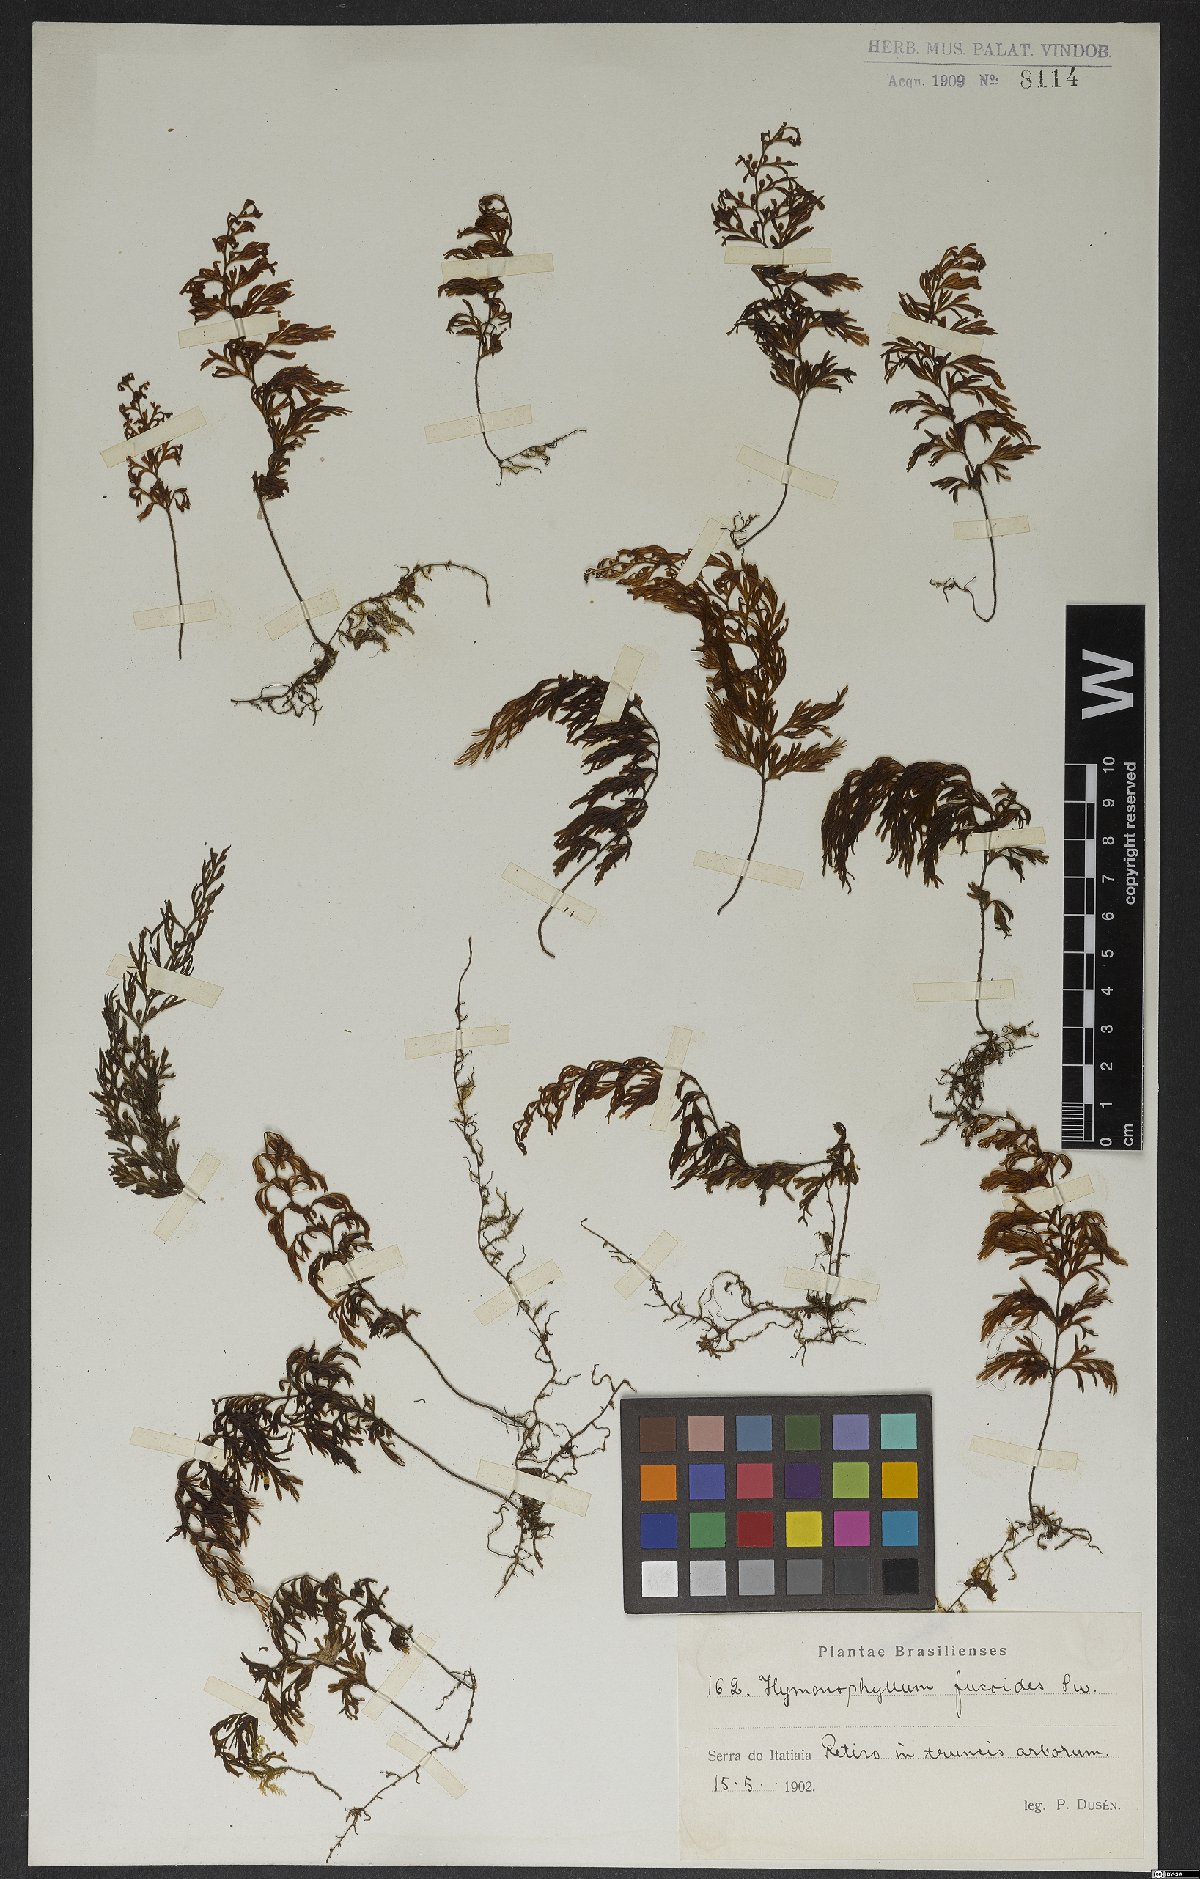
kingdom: Plantae
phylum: Tracheophyta
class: Polypodiopsida
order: Hymenophyllales
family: Hymenophyllaceae
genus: Hymenophyllum
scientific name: Hymenophyllum fucoides
